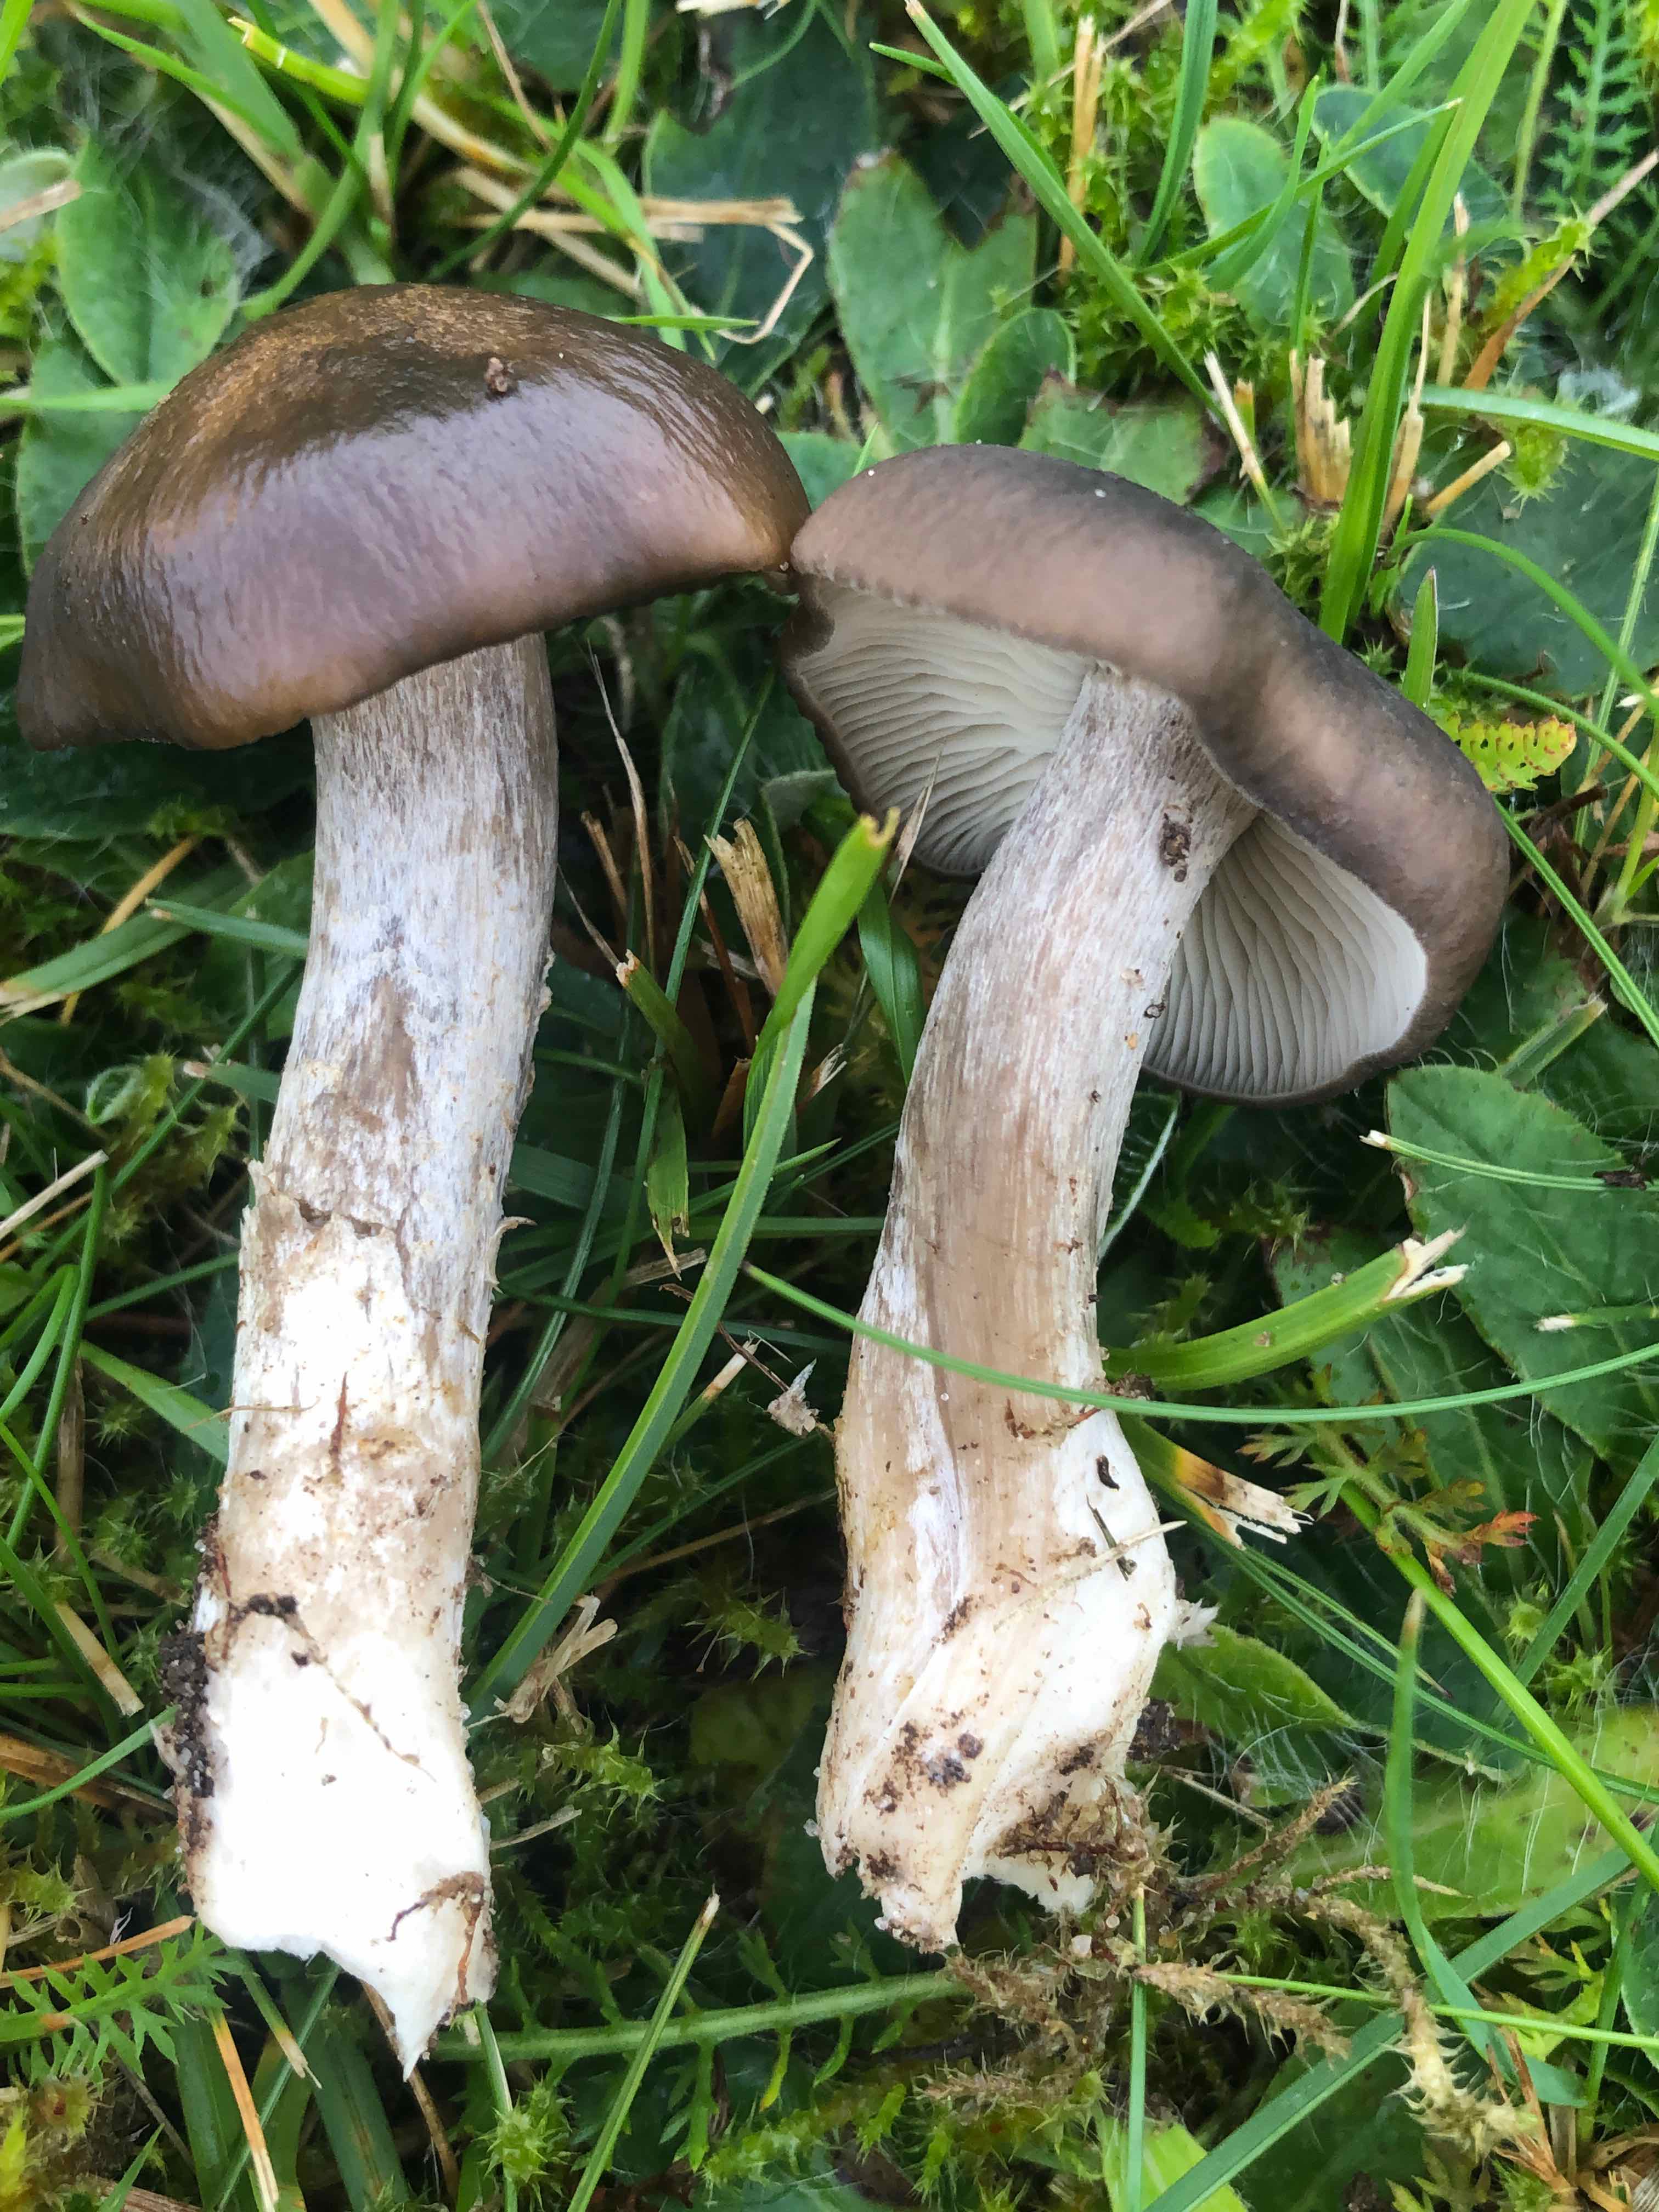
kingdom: Fungi
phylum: Basidiomycota
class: Agaricomycetes
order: Agaricales
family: Lyophyllaceae
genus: Lyophyllum
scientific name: Lyophyllum decastes
